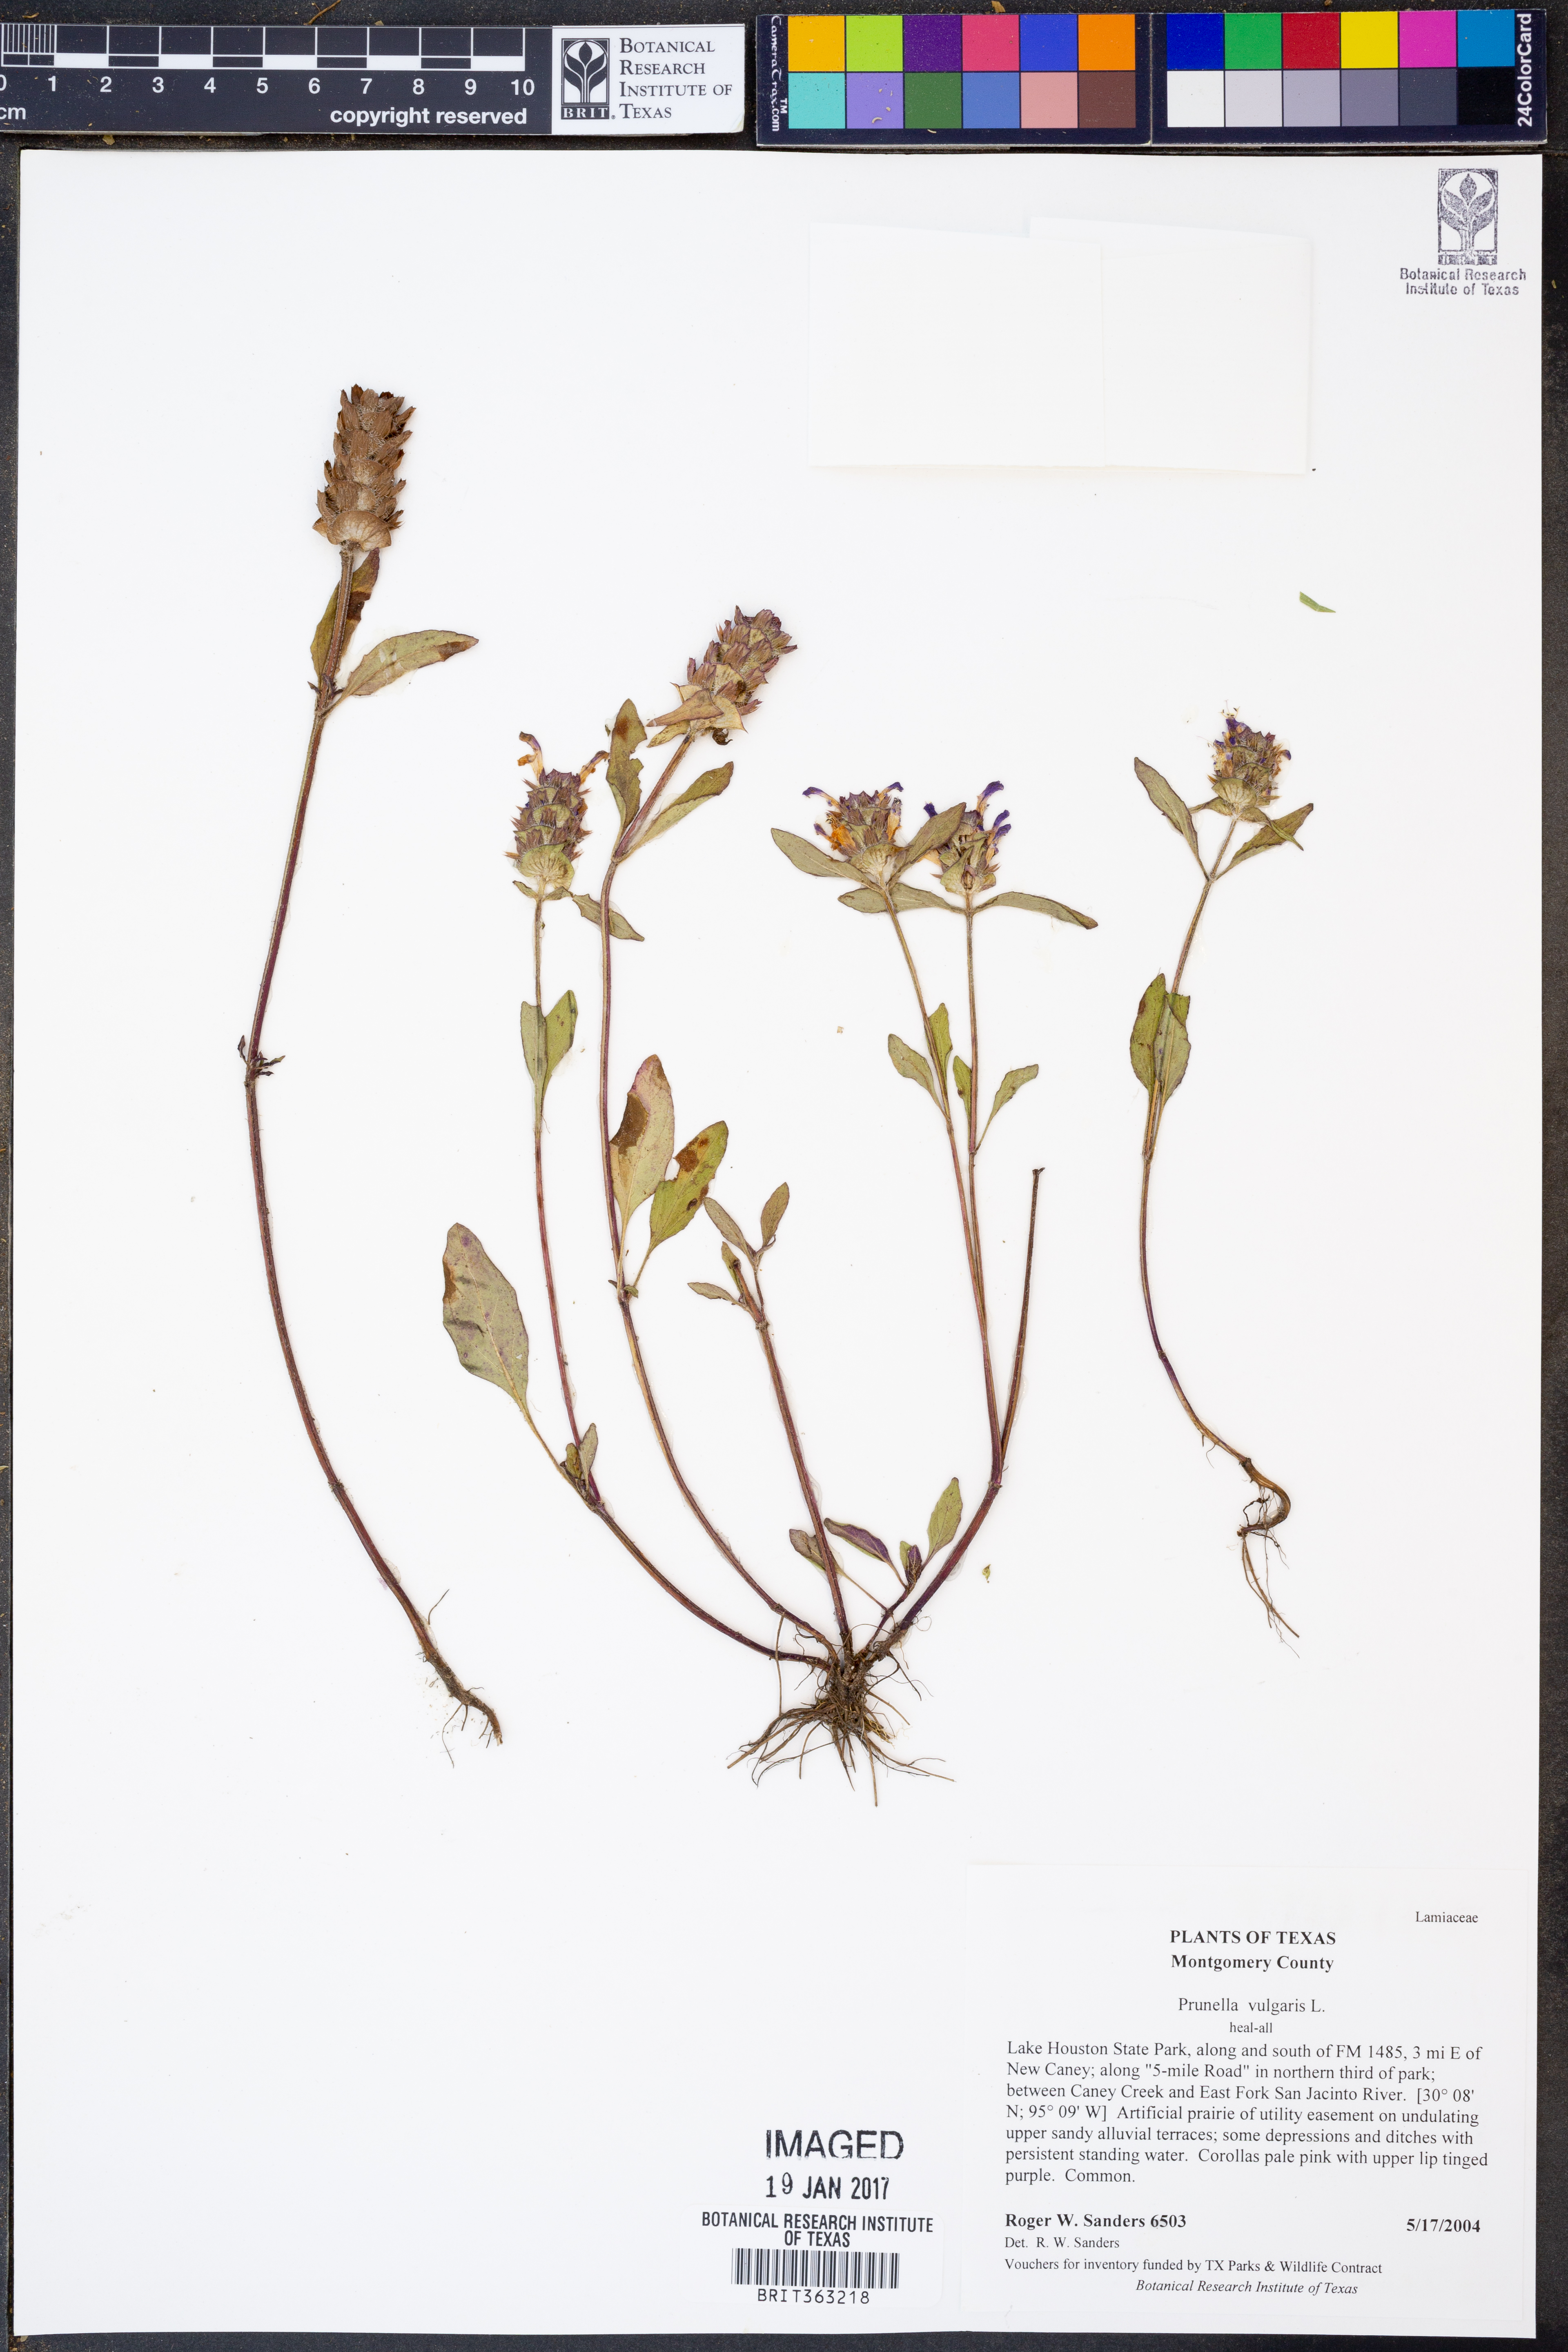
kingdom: Plantae
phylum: Tracheophyta
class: Magnoliopsida
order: Lamiales
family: Lamiaceae
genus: Prunella
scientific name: Prunella vulgaris
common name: Heal-all
